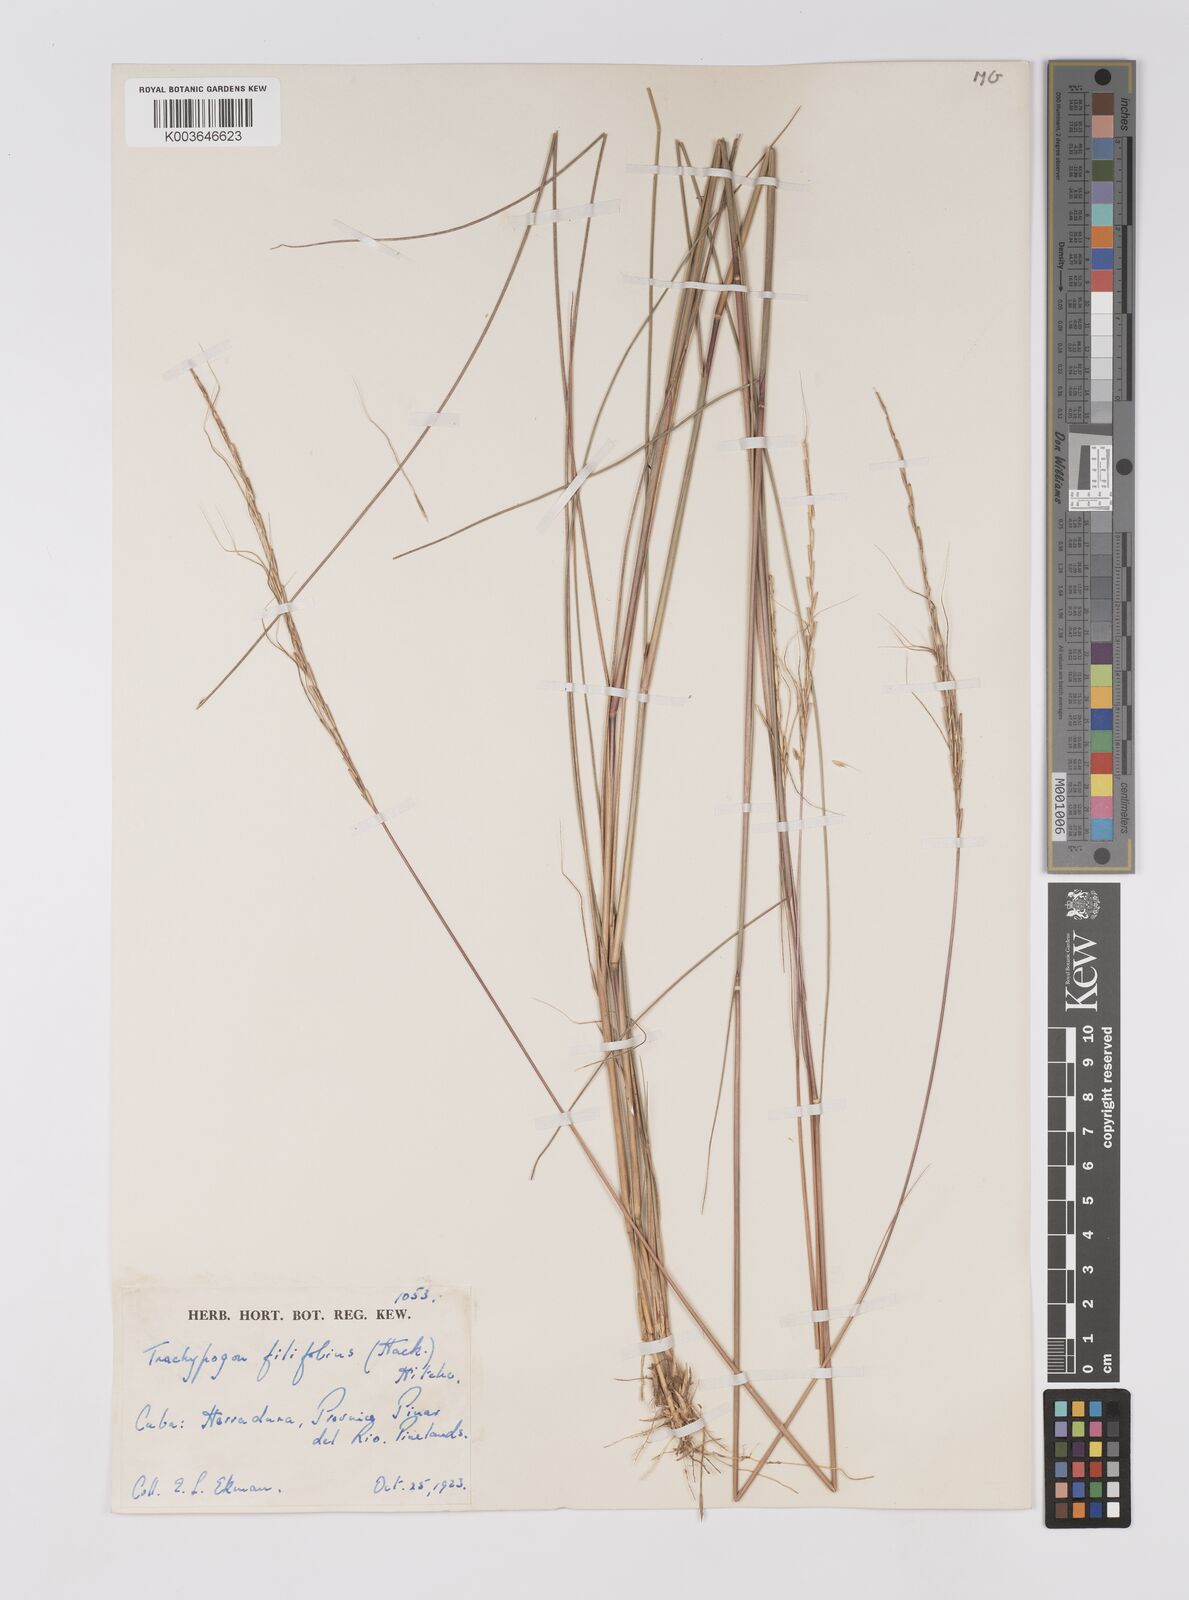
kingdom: Plantae
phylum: Tracheophyta
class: Liliopsida
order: Poales
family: Poaceae
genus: Trachypogon
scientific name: Trachypogon macroglossus
